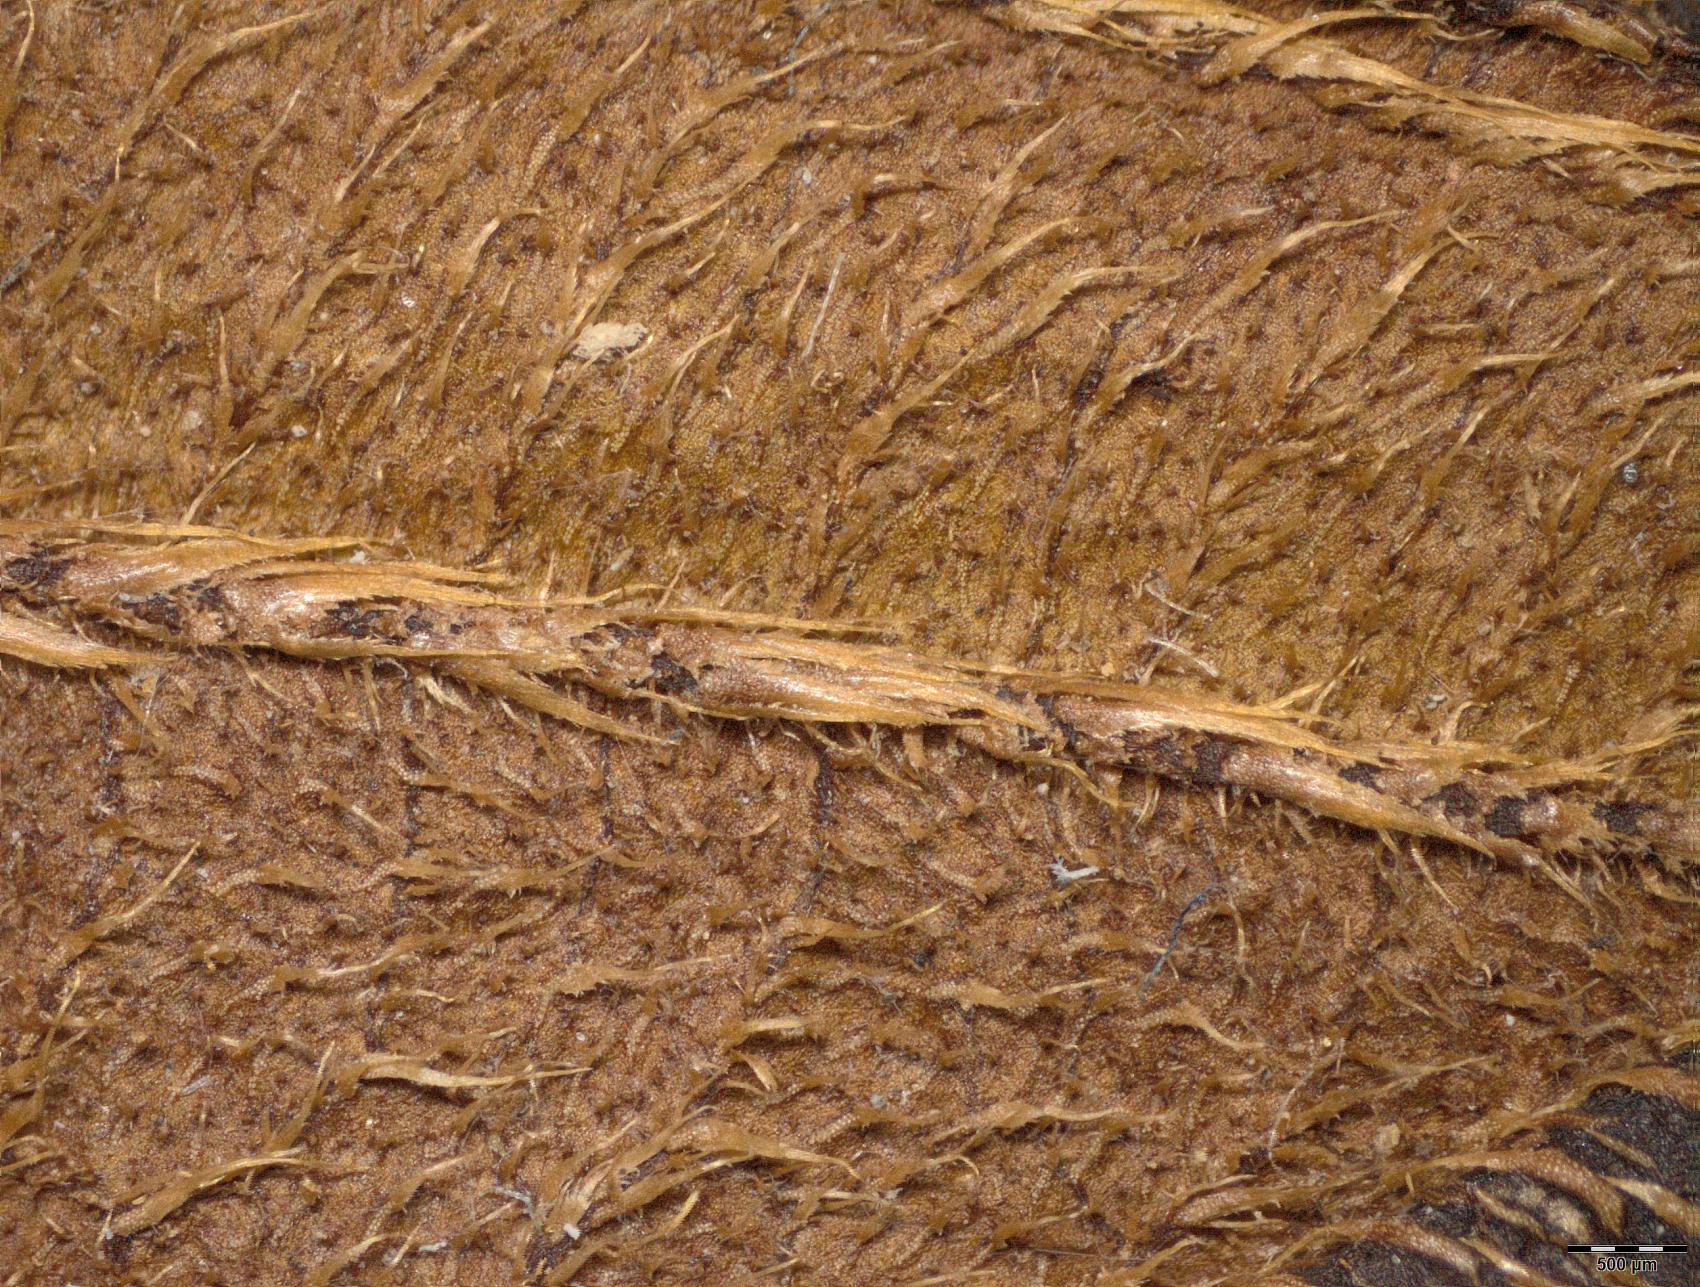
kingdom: Plantae
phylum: Tracheophyta
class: Magnoliopsida
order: Myrtales
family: Melastomataceae
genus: Melastoma
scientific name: Melastoma scabrosum
